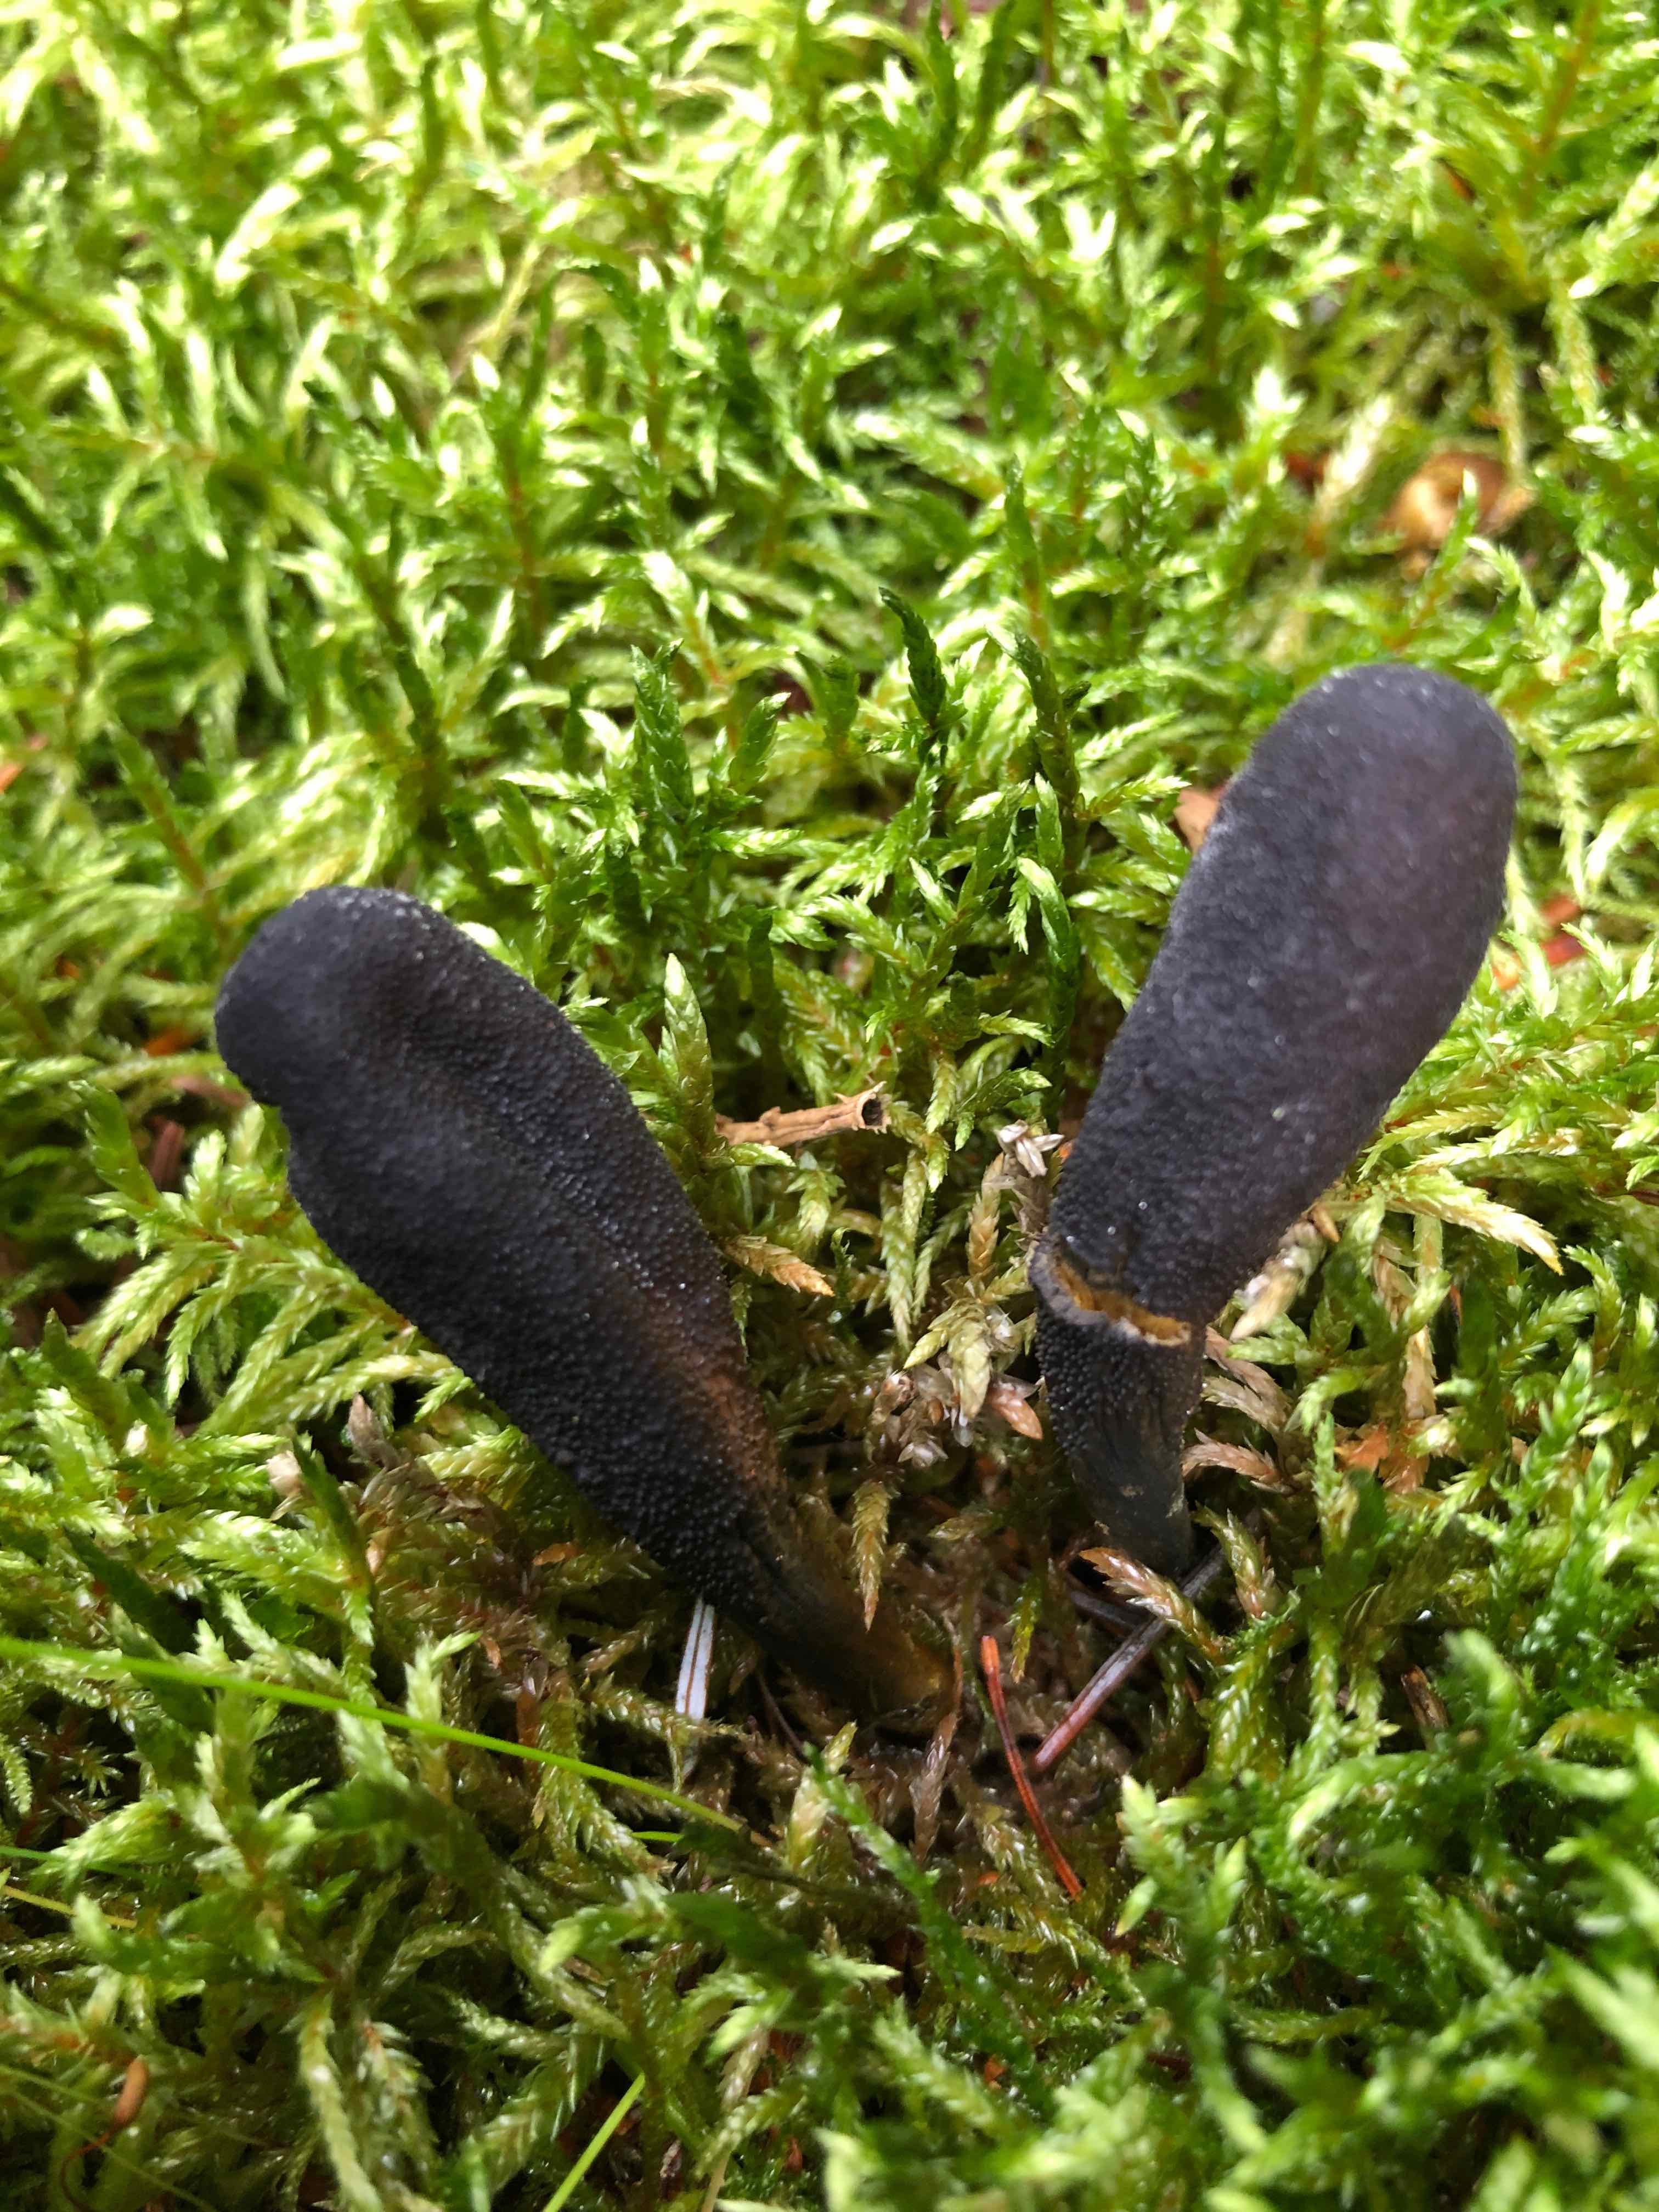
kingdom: Fungi
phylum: Ascomycota
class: Sordariomycetes
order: Hypocreales
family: Ophiocordycipitaceae
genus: Tolypocladium
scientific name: Tolypocladium ophioglossoides
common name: slank snyltekølle
